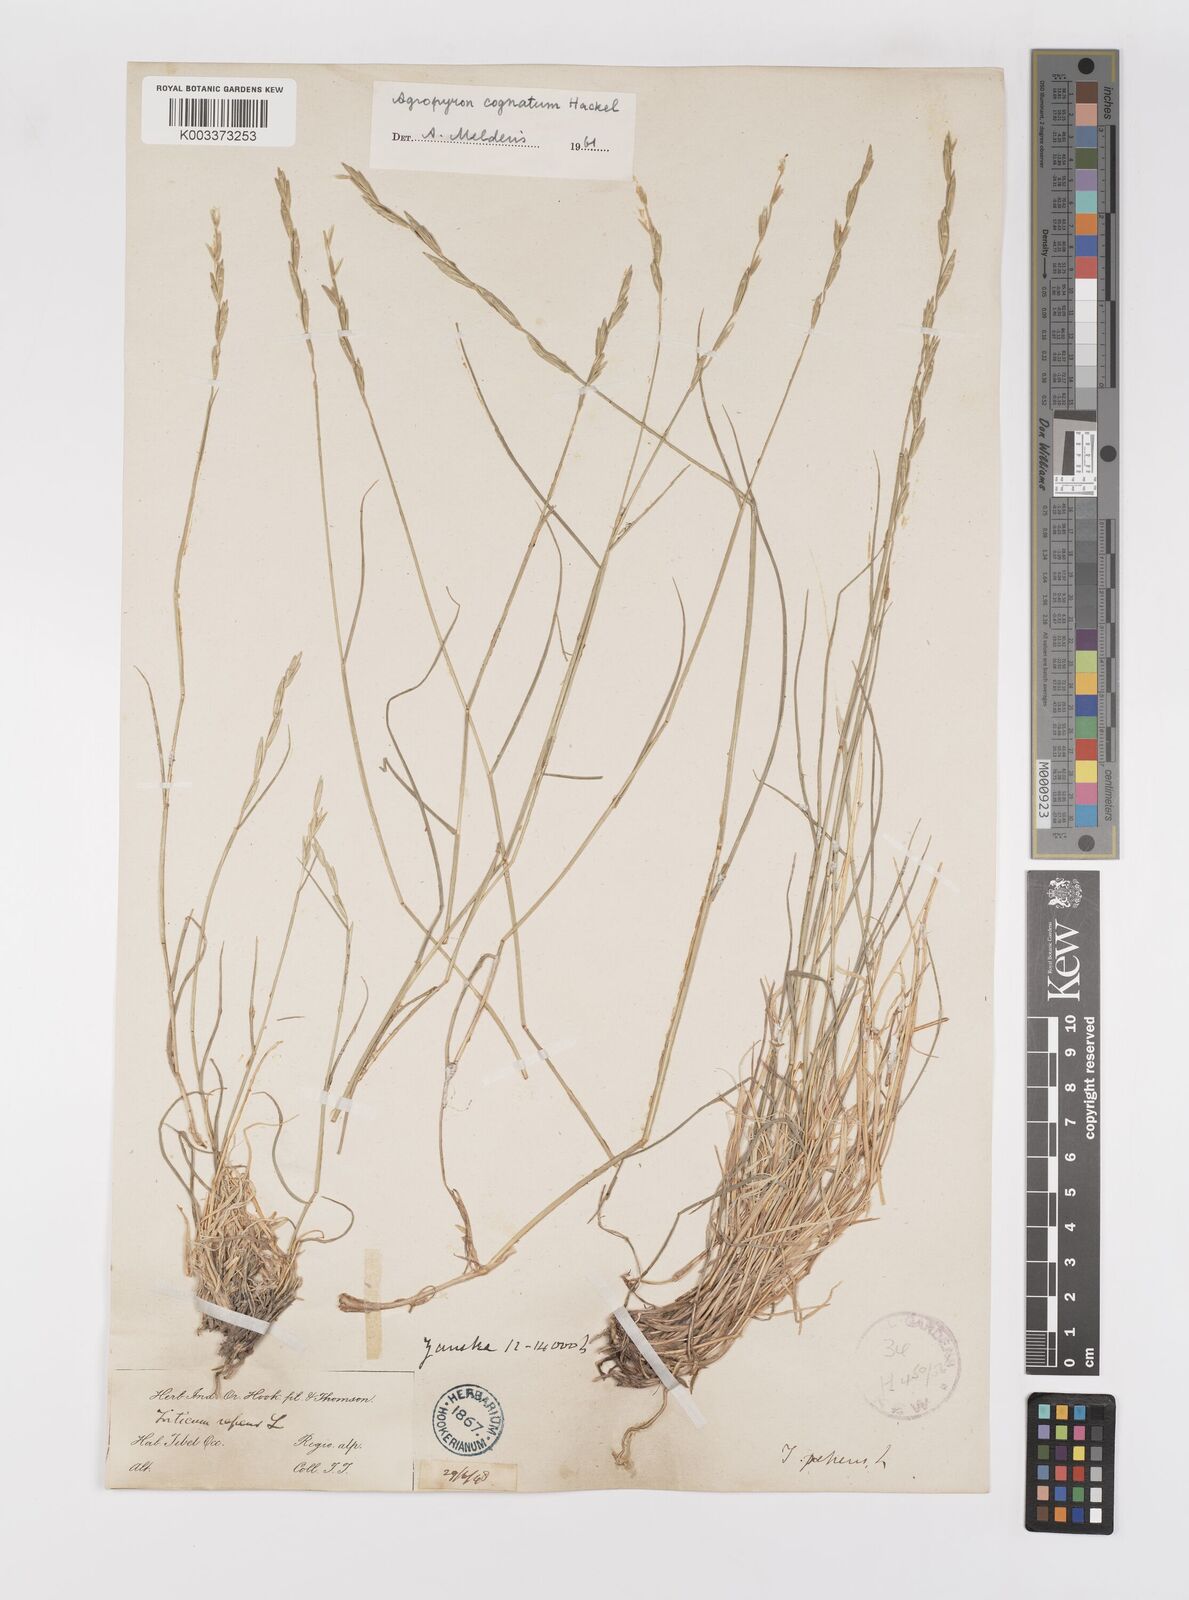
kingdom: Plantae
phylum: Tracheophyta
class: Liliopsida
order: Poales
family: Poaceae
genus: Pseudoroegneria
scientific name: Pseudoroegneria cognata
